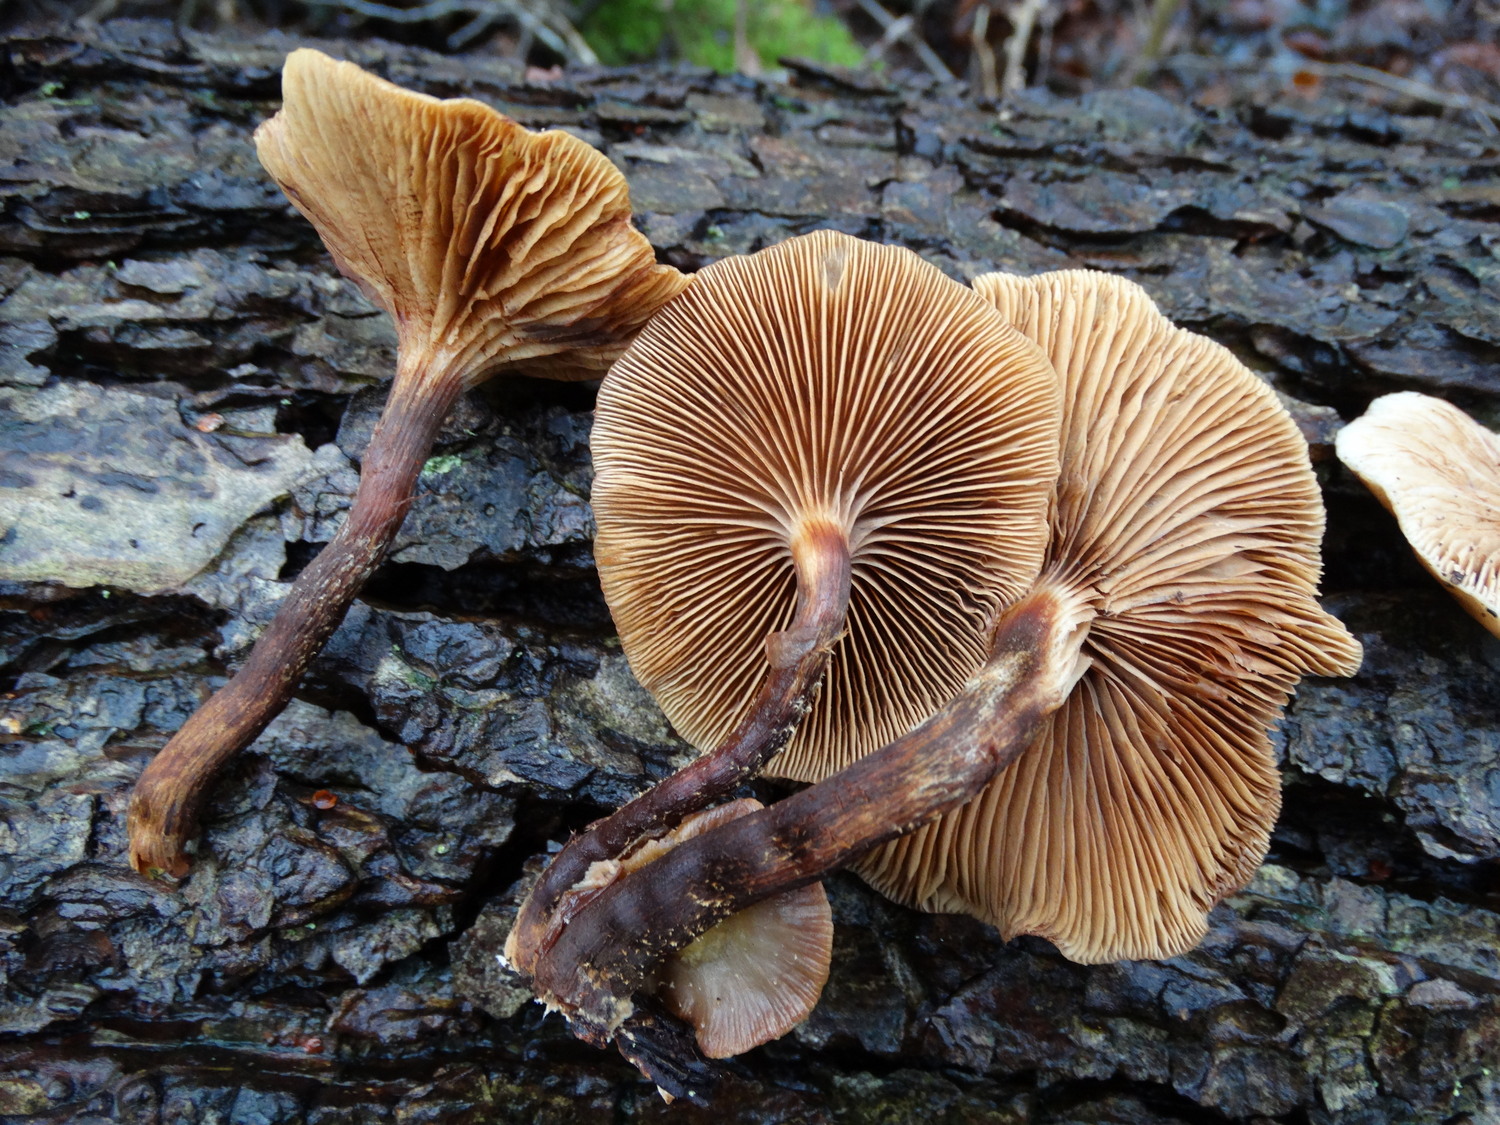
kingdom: Fungi
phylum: Basidiomycota
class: Agaricomycetes
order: Agaricales
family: Strophariaceae
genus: Kuehneromyces
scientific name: Kuehneromyces mutabilis
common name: foranderlig skælhat
